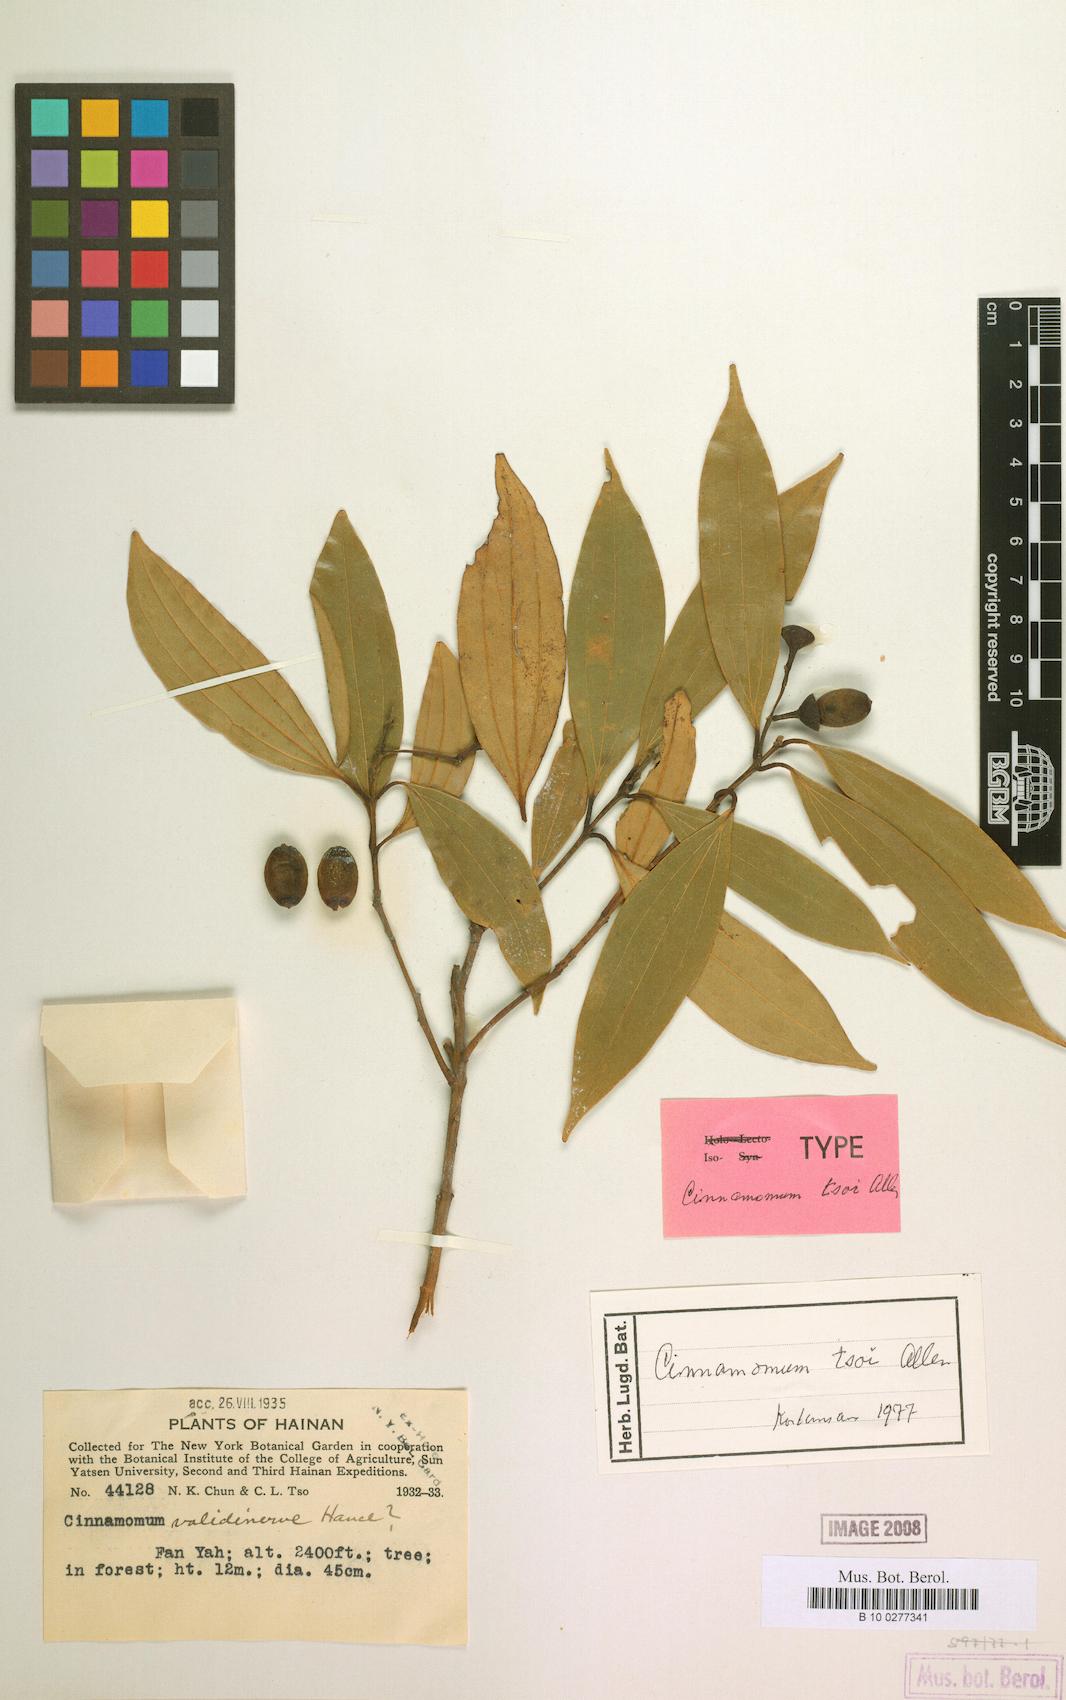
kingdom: Plantae
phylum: Tracheophyta
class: Magnoliopsida
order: Laurales
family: Lauraceae
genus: Cinnamomum
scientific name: Cinnamomum tsoi
